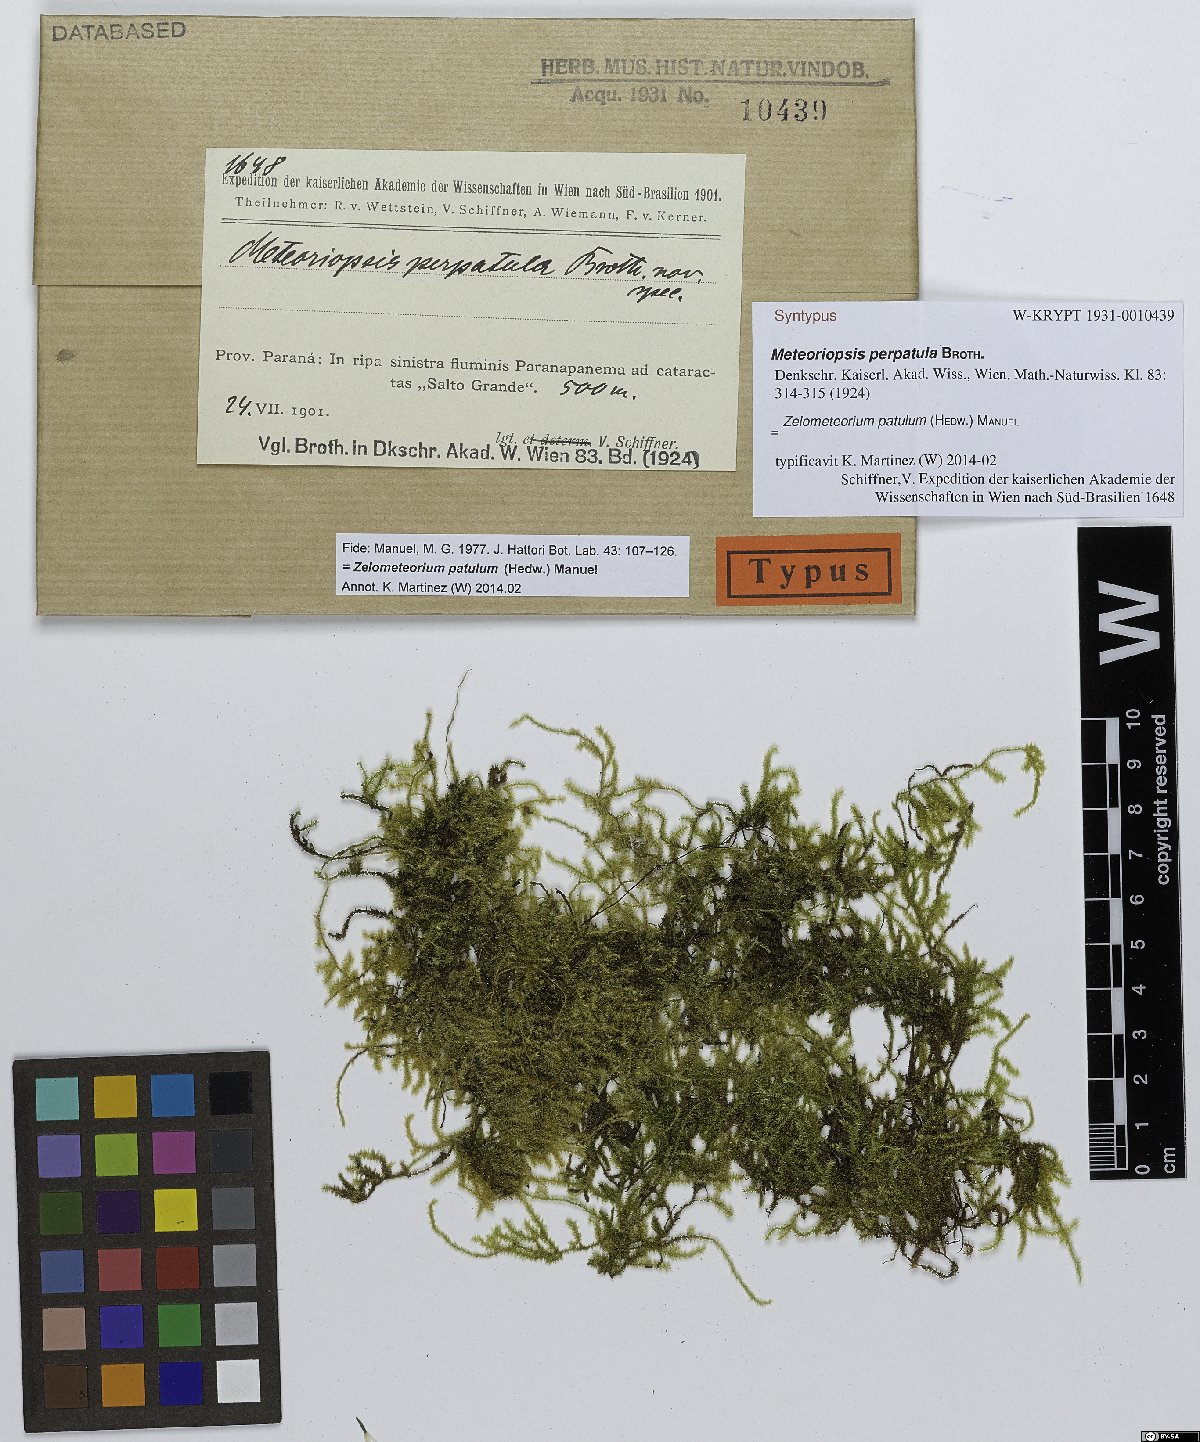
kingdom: Plantae
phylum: Bryophyta
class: Bryopsida
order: Hypnales
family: Brachytheciaceae
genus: Zelometeorium
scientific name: Zelometeorium patulum
